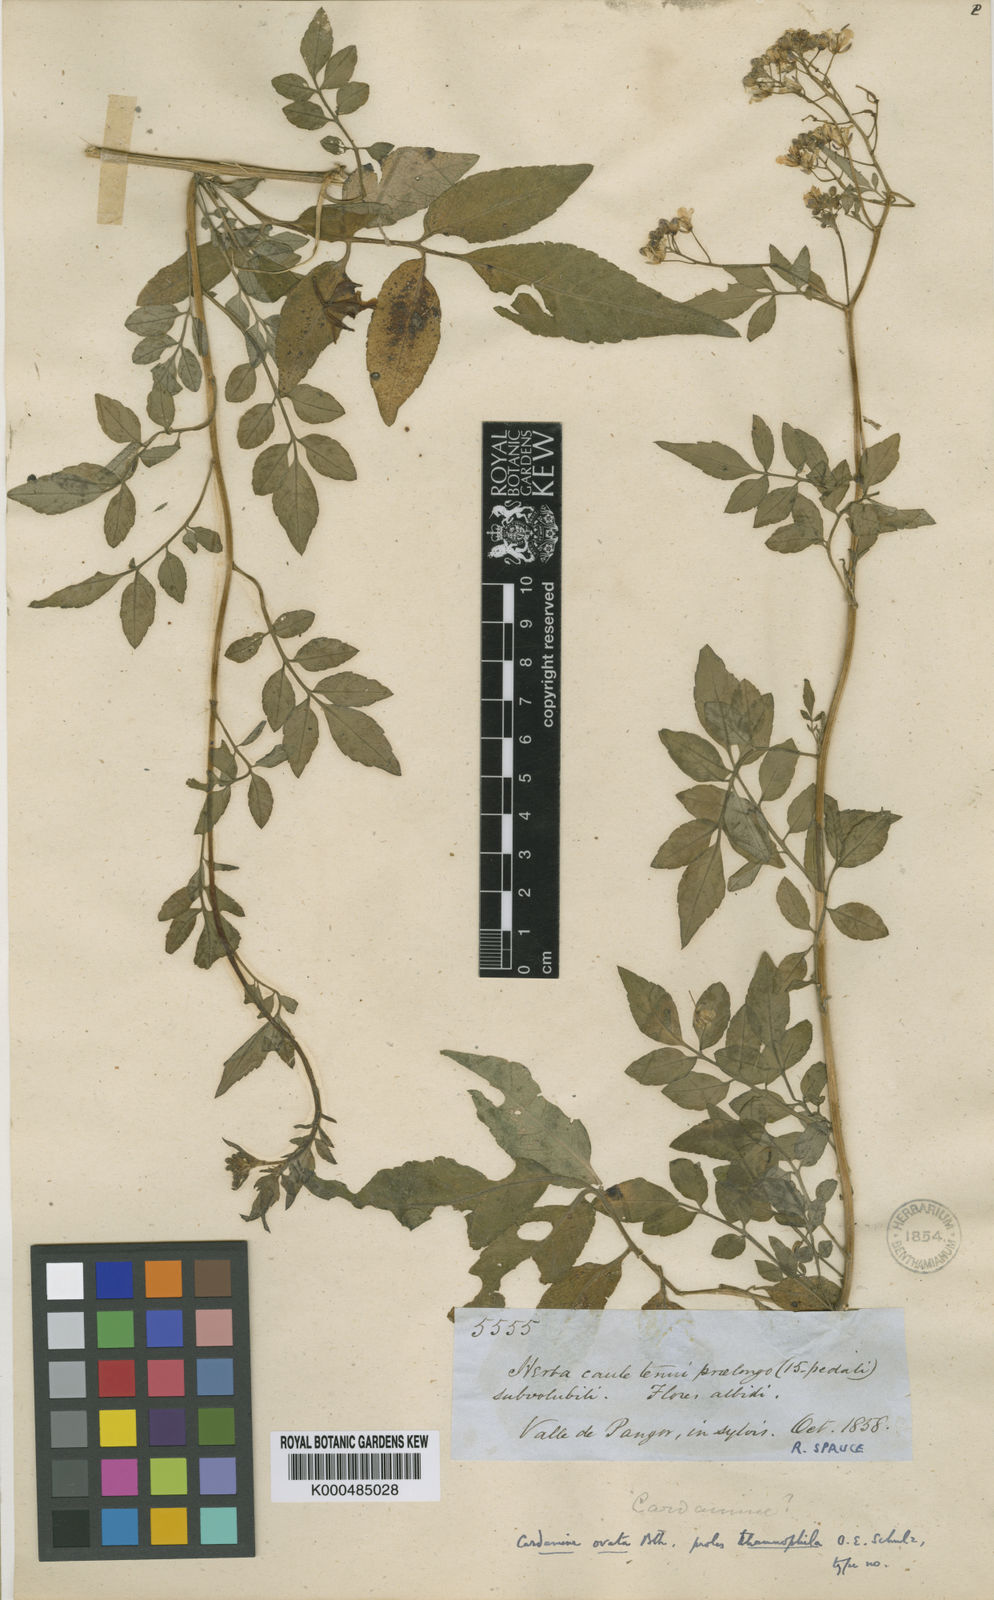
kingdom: Plantae
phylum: Tracheophyta
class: Magnoliopsida
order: Brassicales
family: Brassicaceae
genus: Cardamine
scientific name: Cardamine ovata
